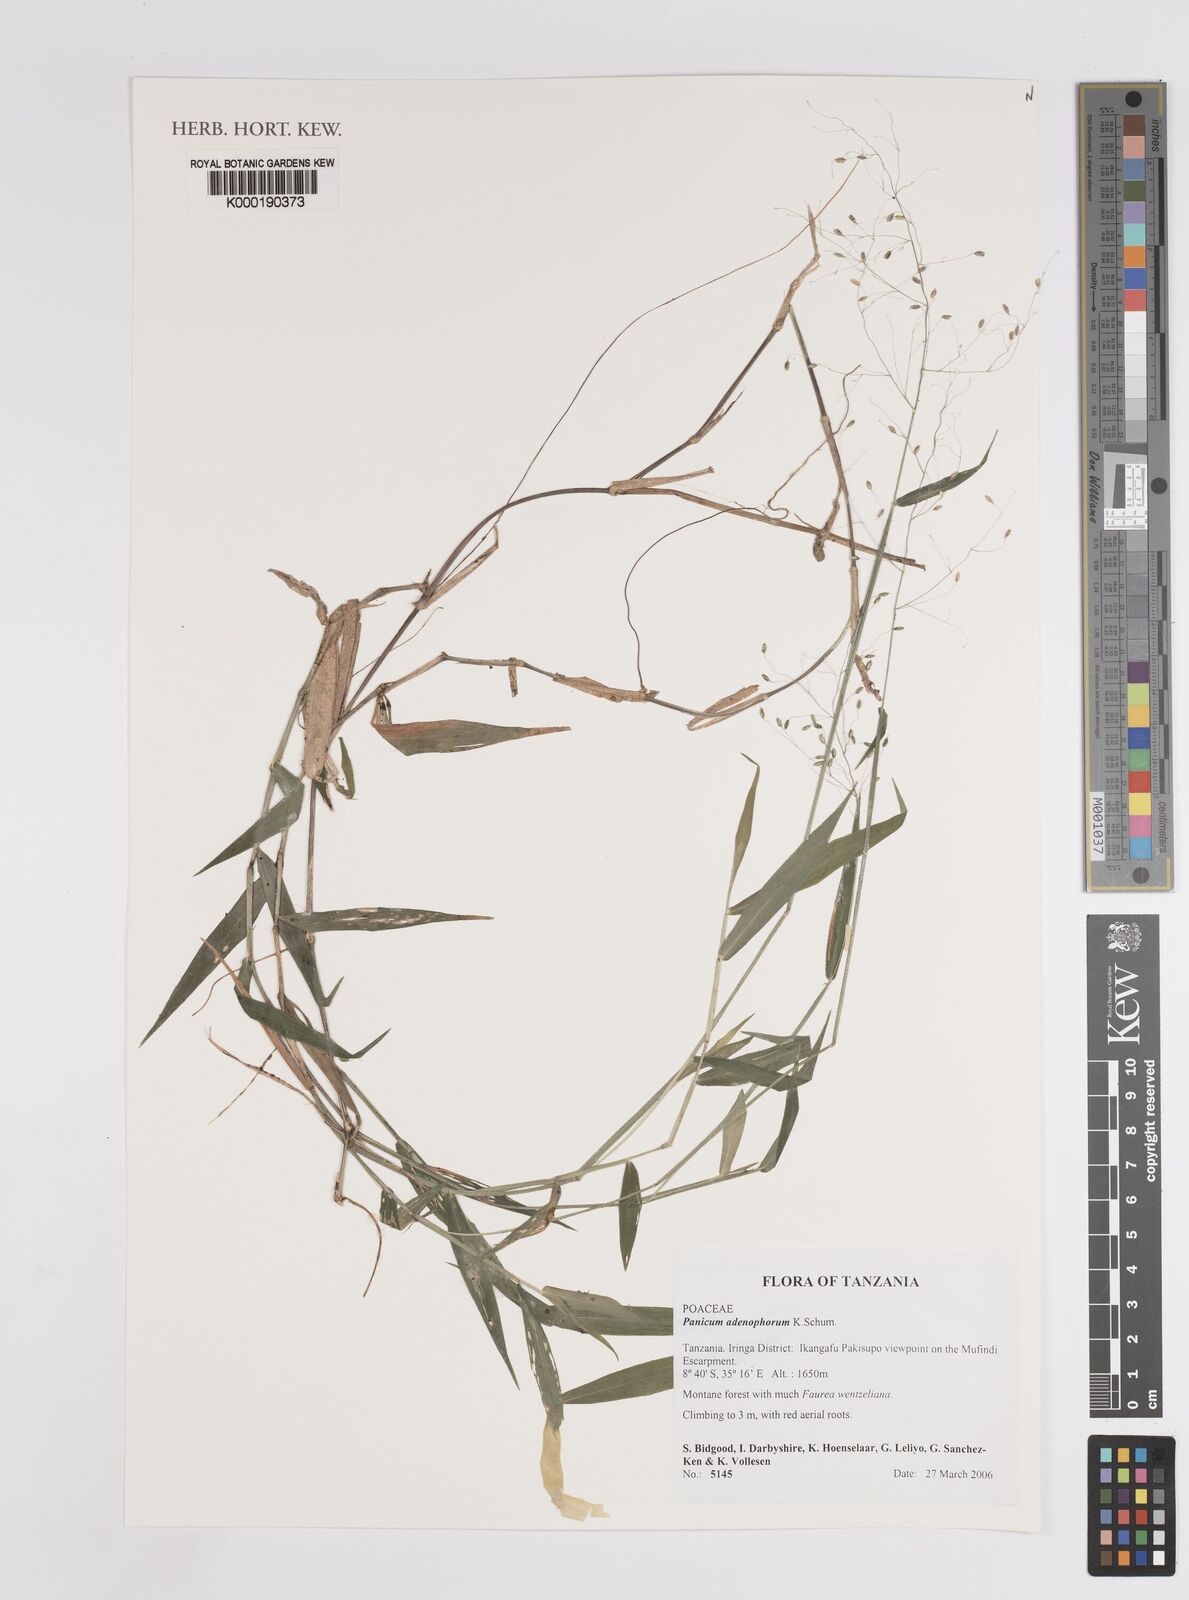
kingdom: Plantae
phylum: Tracheophyta
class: Liliopsida
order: Poales
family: Poaceae
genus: Adenochloa
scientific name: Adenochloa adenophora
